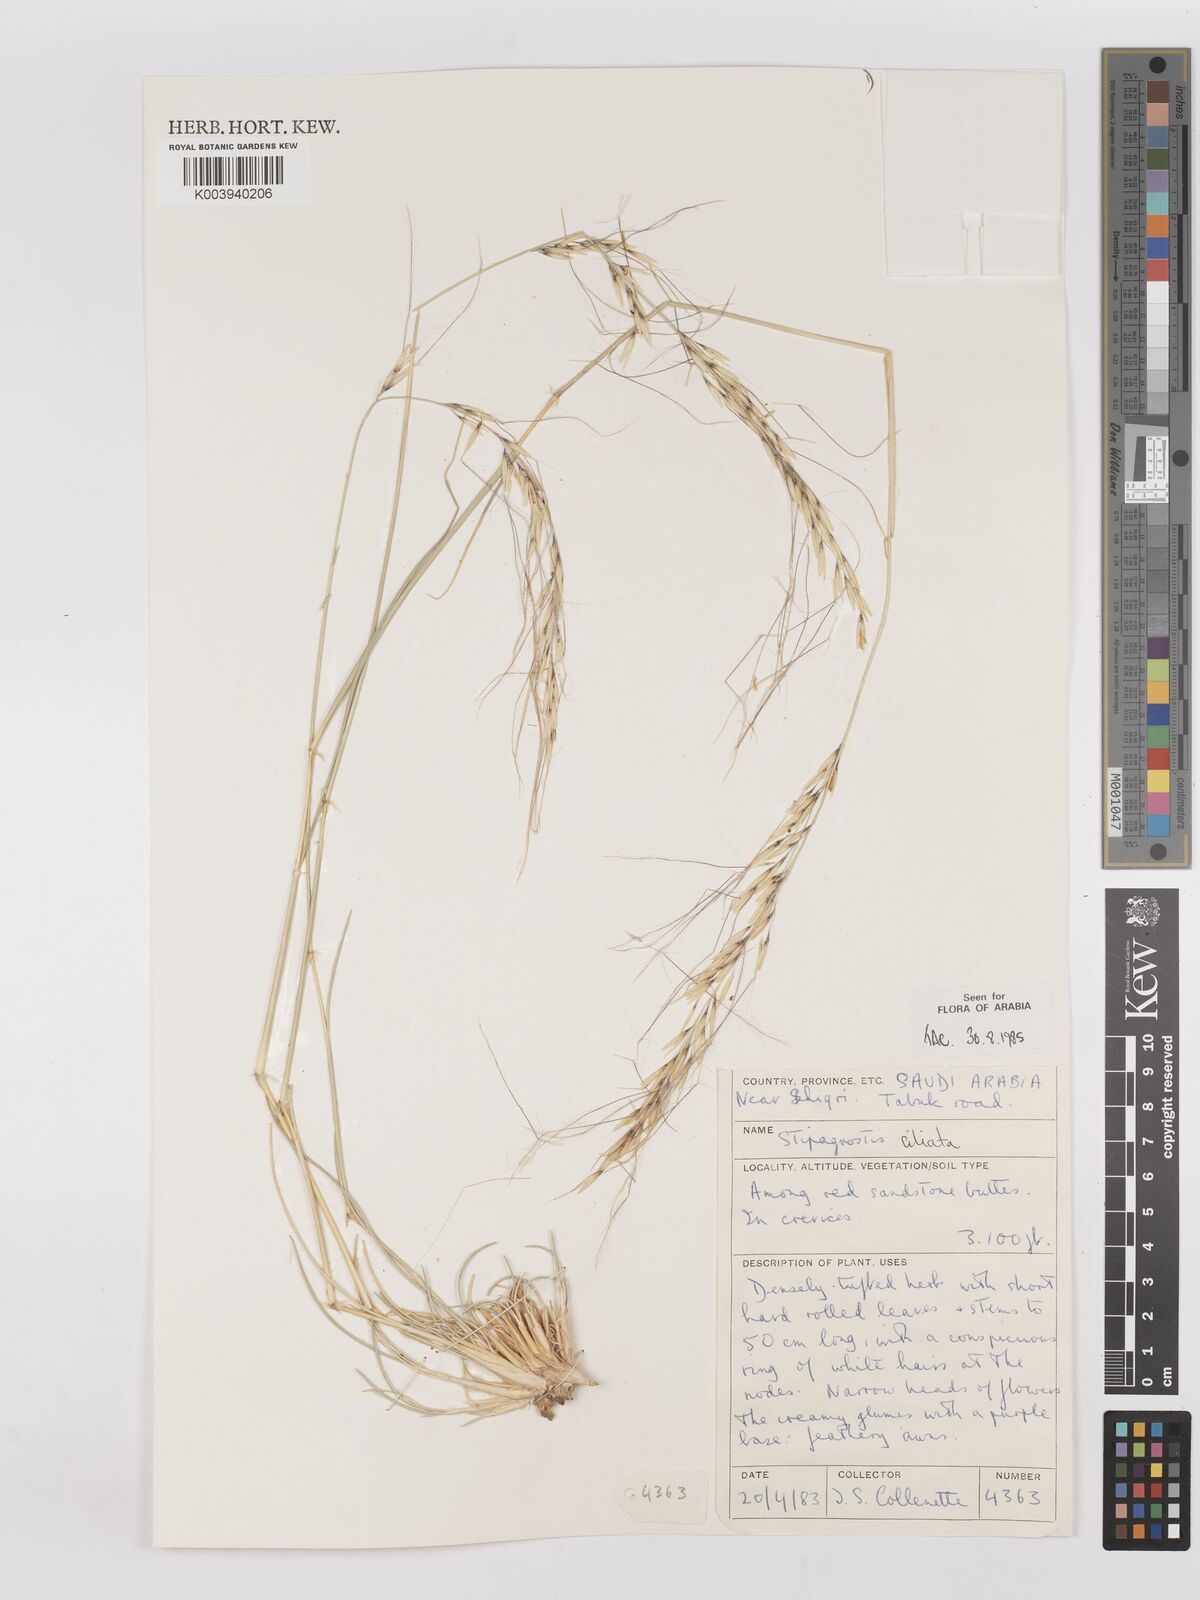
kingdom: Plantae
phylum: Tracheophyta
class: Liliopsida
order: Poales
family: Poaceae
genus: Stipagrostis
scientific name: Stipagrostis ciliata
